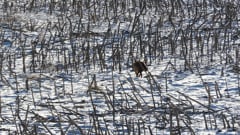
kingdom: Animalia
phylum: Chordata
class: Mammalia
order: Carnivora
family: Canidae
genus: Vulpes
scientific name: Vulpes vulpes
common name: Red fox
